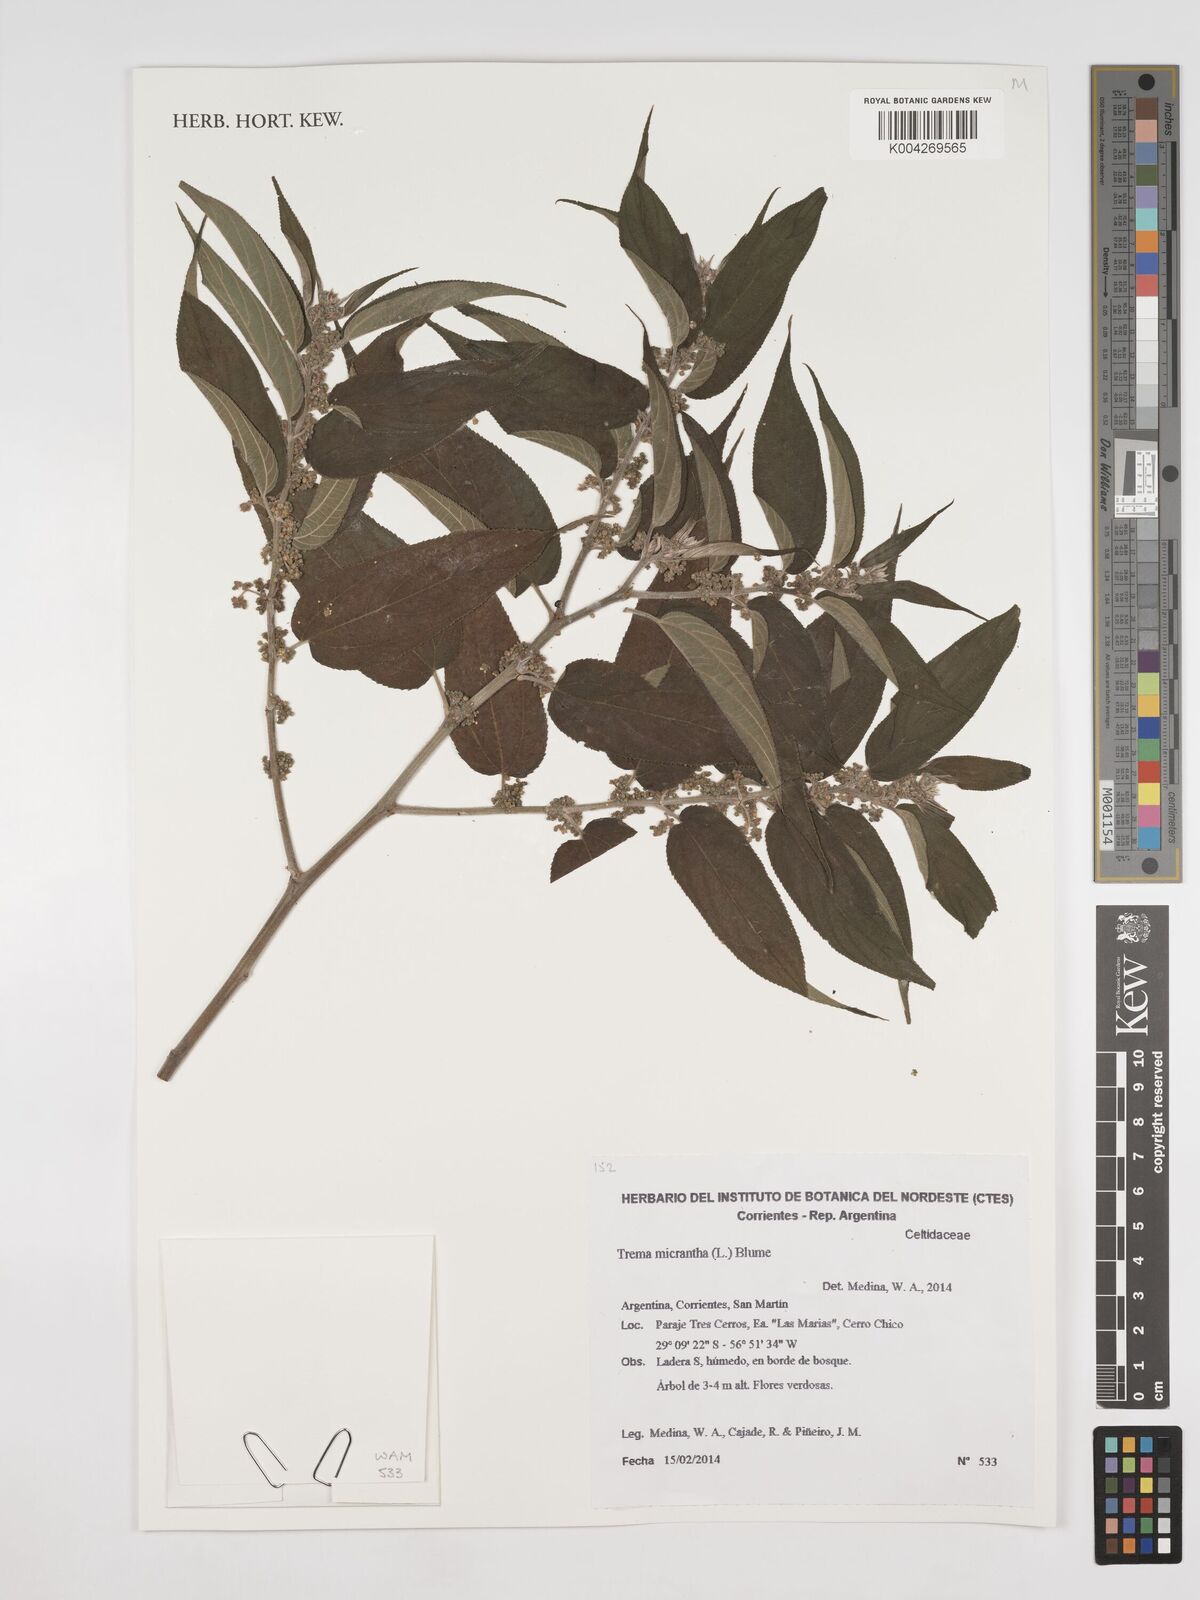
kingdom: Plantae
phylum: Tracheophyta
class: Magnoliopsida
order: Rosales
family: Cannabaceae
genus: Trema
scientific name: Trema micranthum
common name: Jamaican nettletree
